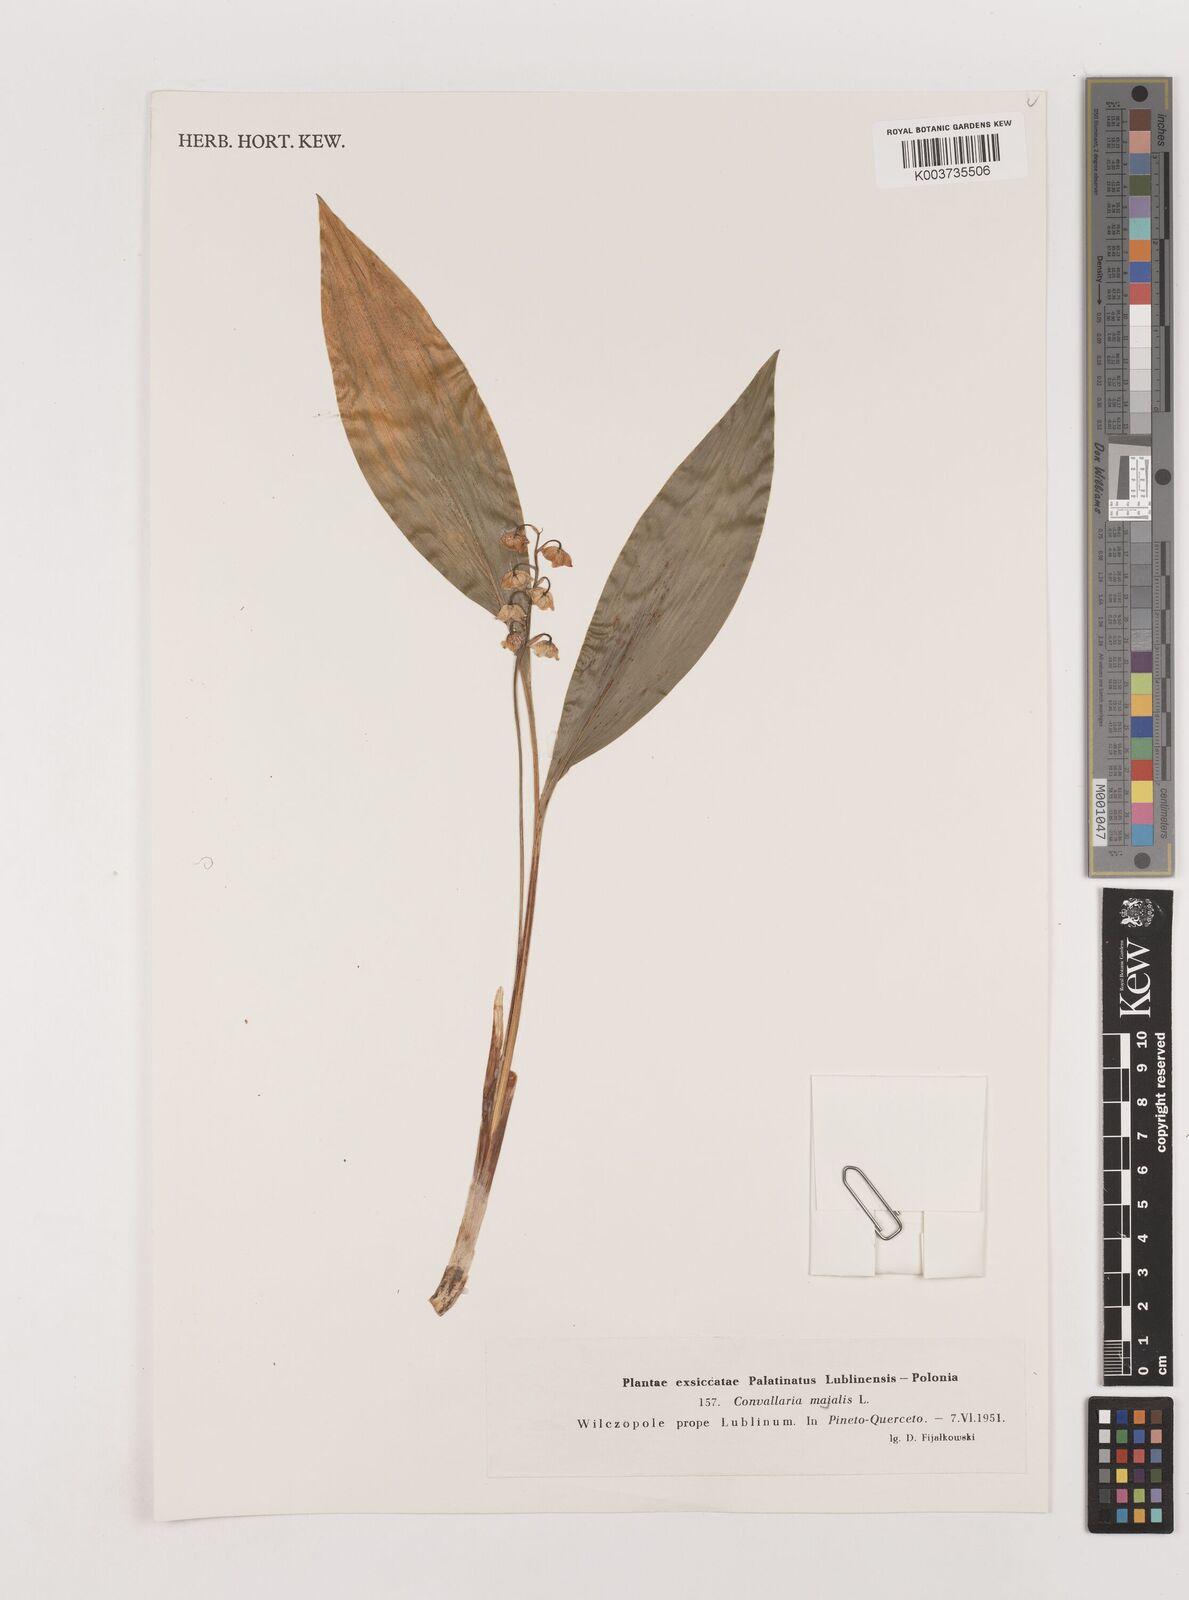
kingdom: Plantae
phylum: Tracheophyta
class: Liliopsida
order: Asparagales
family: Asparagaceae
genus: Convallaria
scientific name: Convallaria majalis
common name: Lily-of-the-valley
